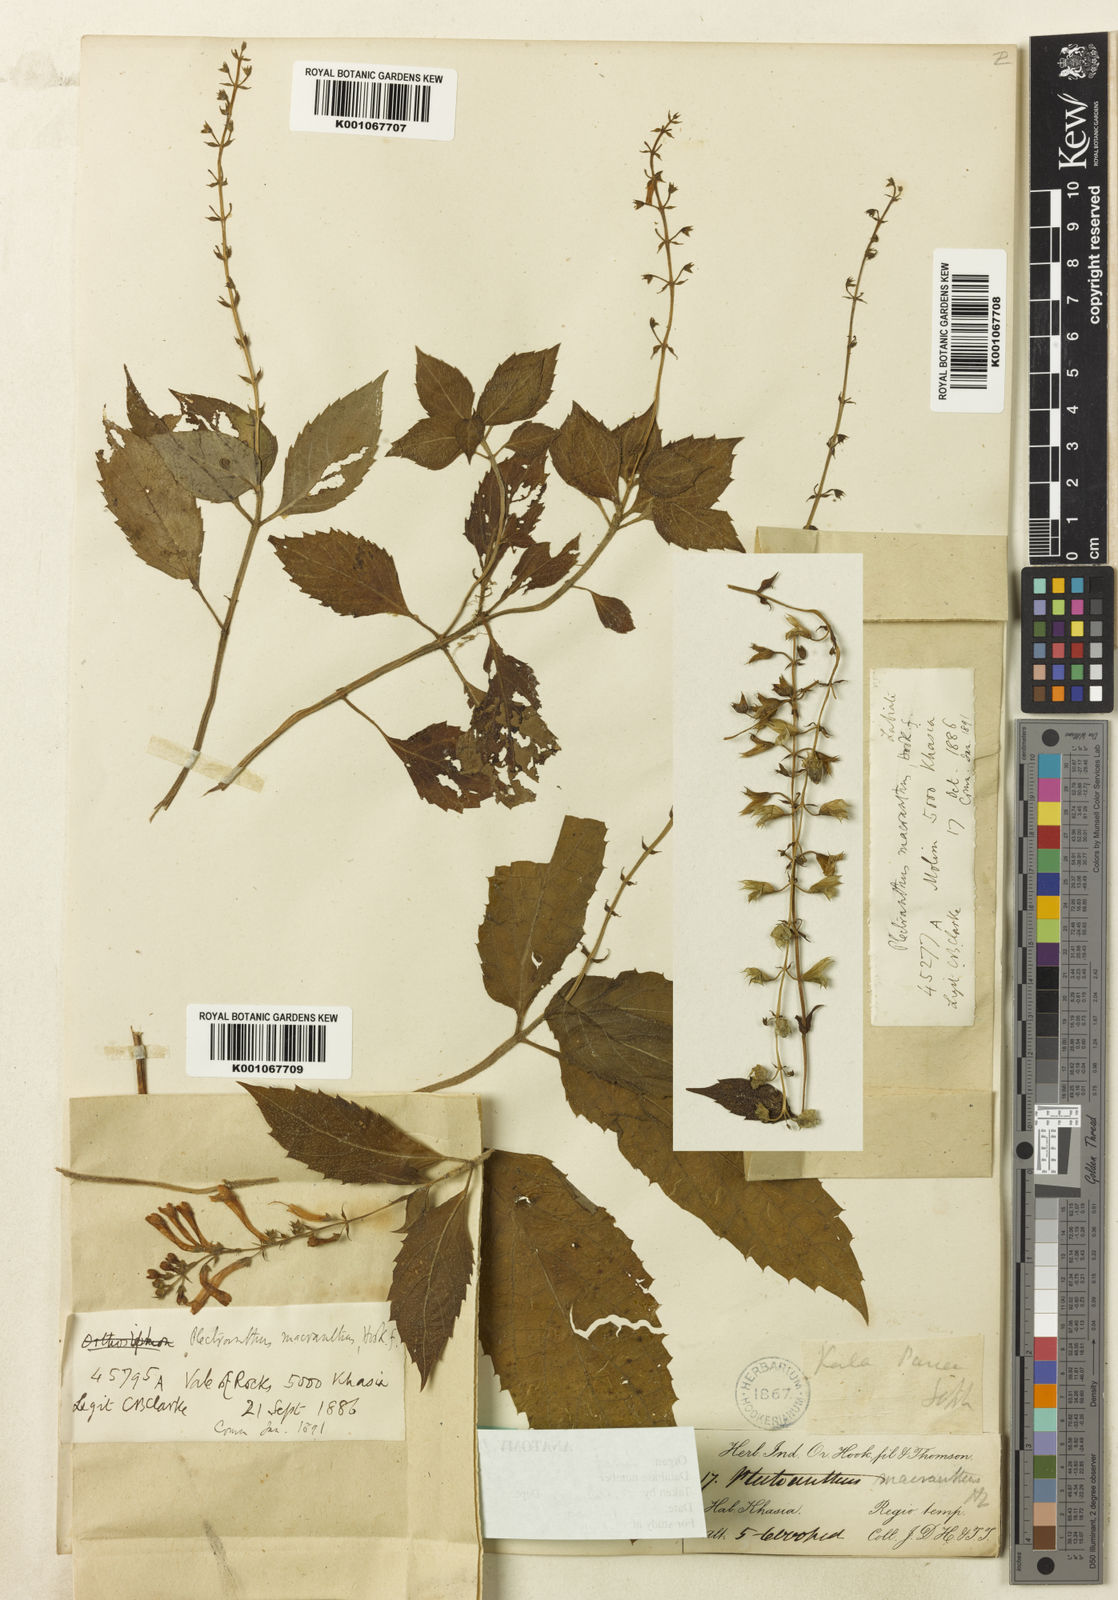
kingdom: Plantae
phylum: Tracheophyta
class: Magnoliopsida
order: Lamiales
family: Lamiaceae
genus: Siphocranion
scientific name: Siphocranion macranthum
